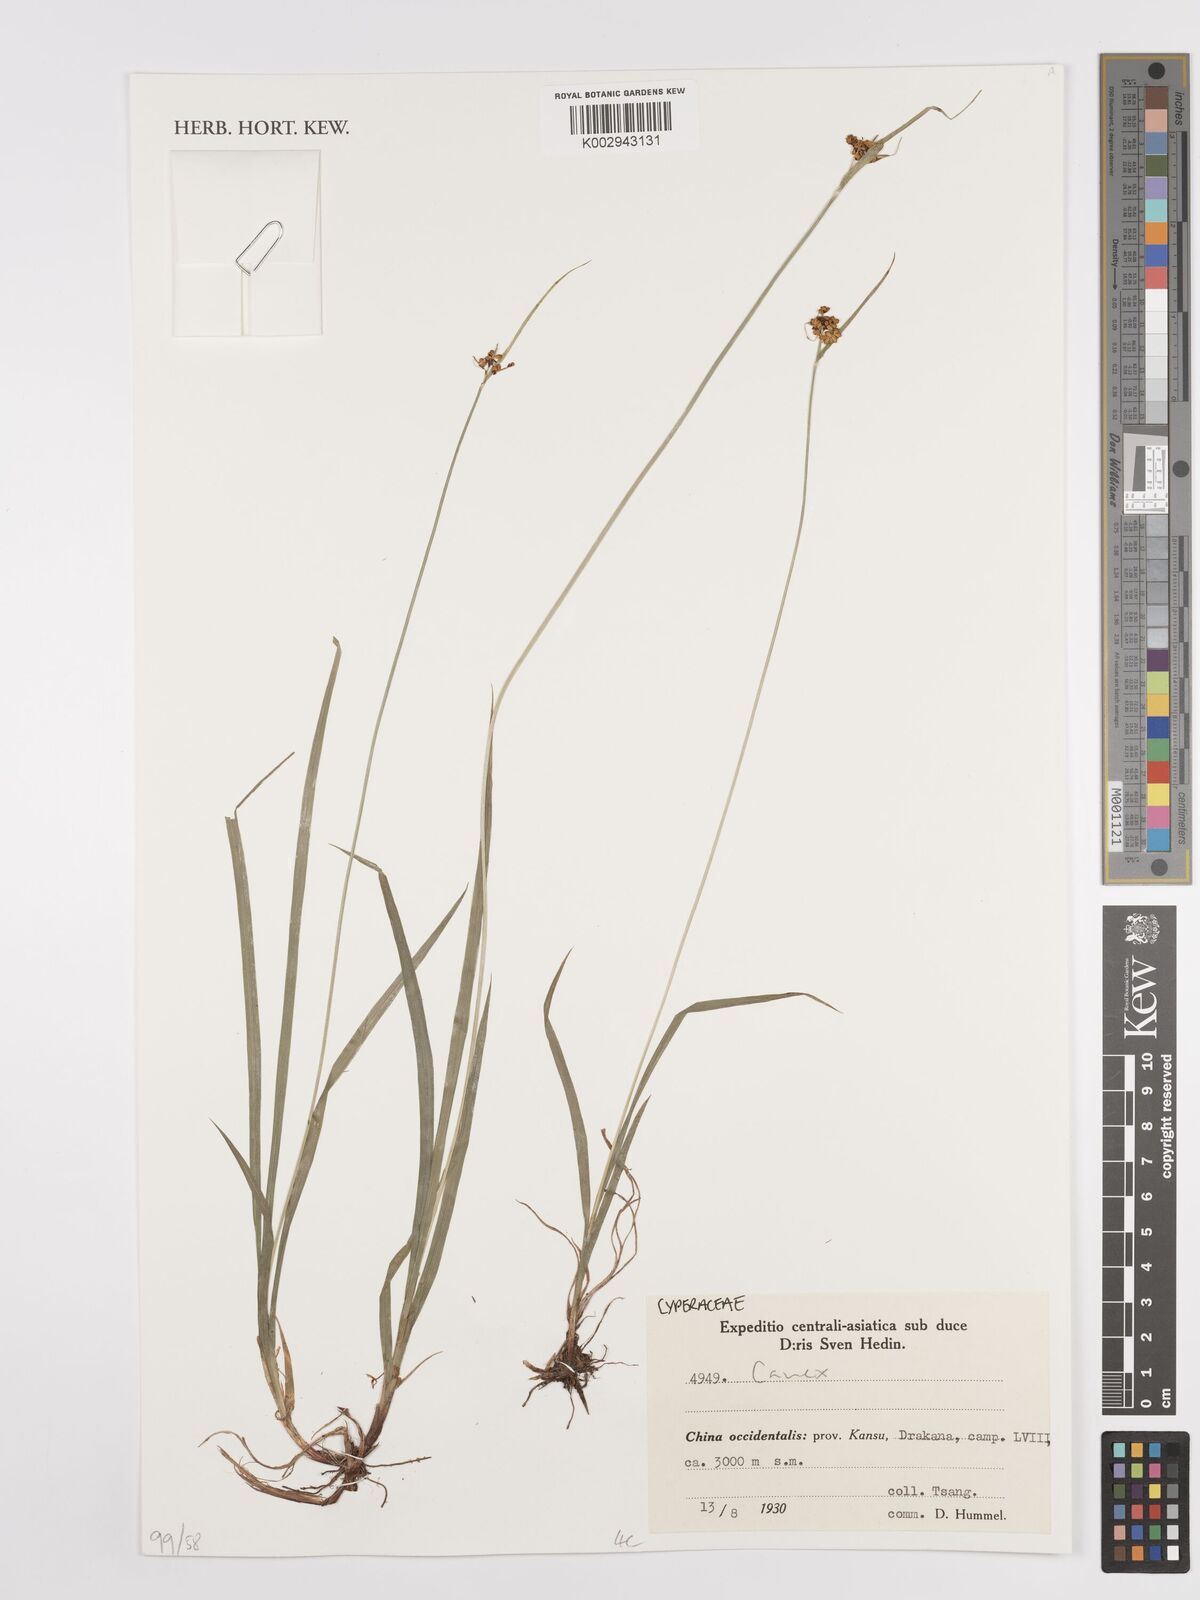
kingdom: Plantae
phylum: Tracheophyta
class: Liliopsida
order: Poales
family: Cyperaceae
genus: Carex
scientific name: Carex
